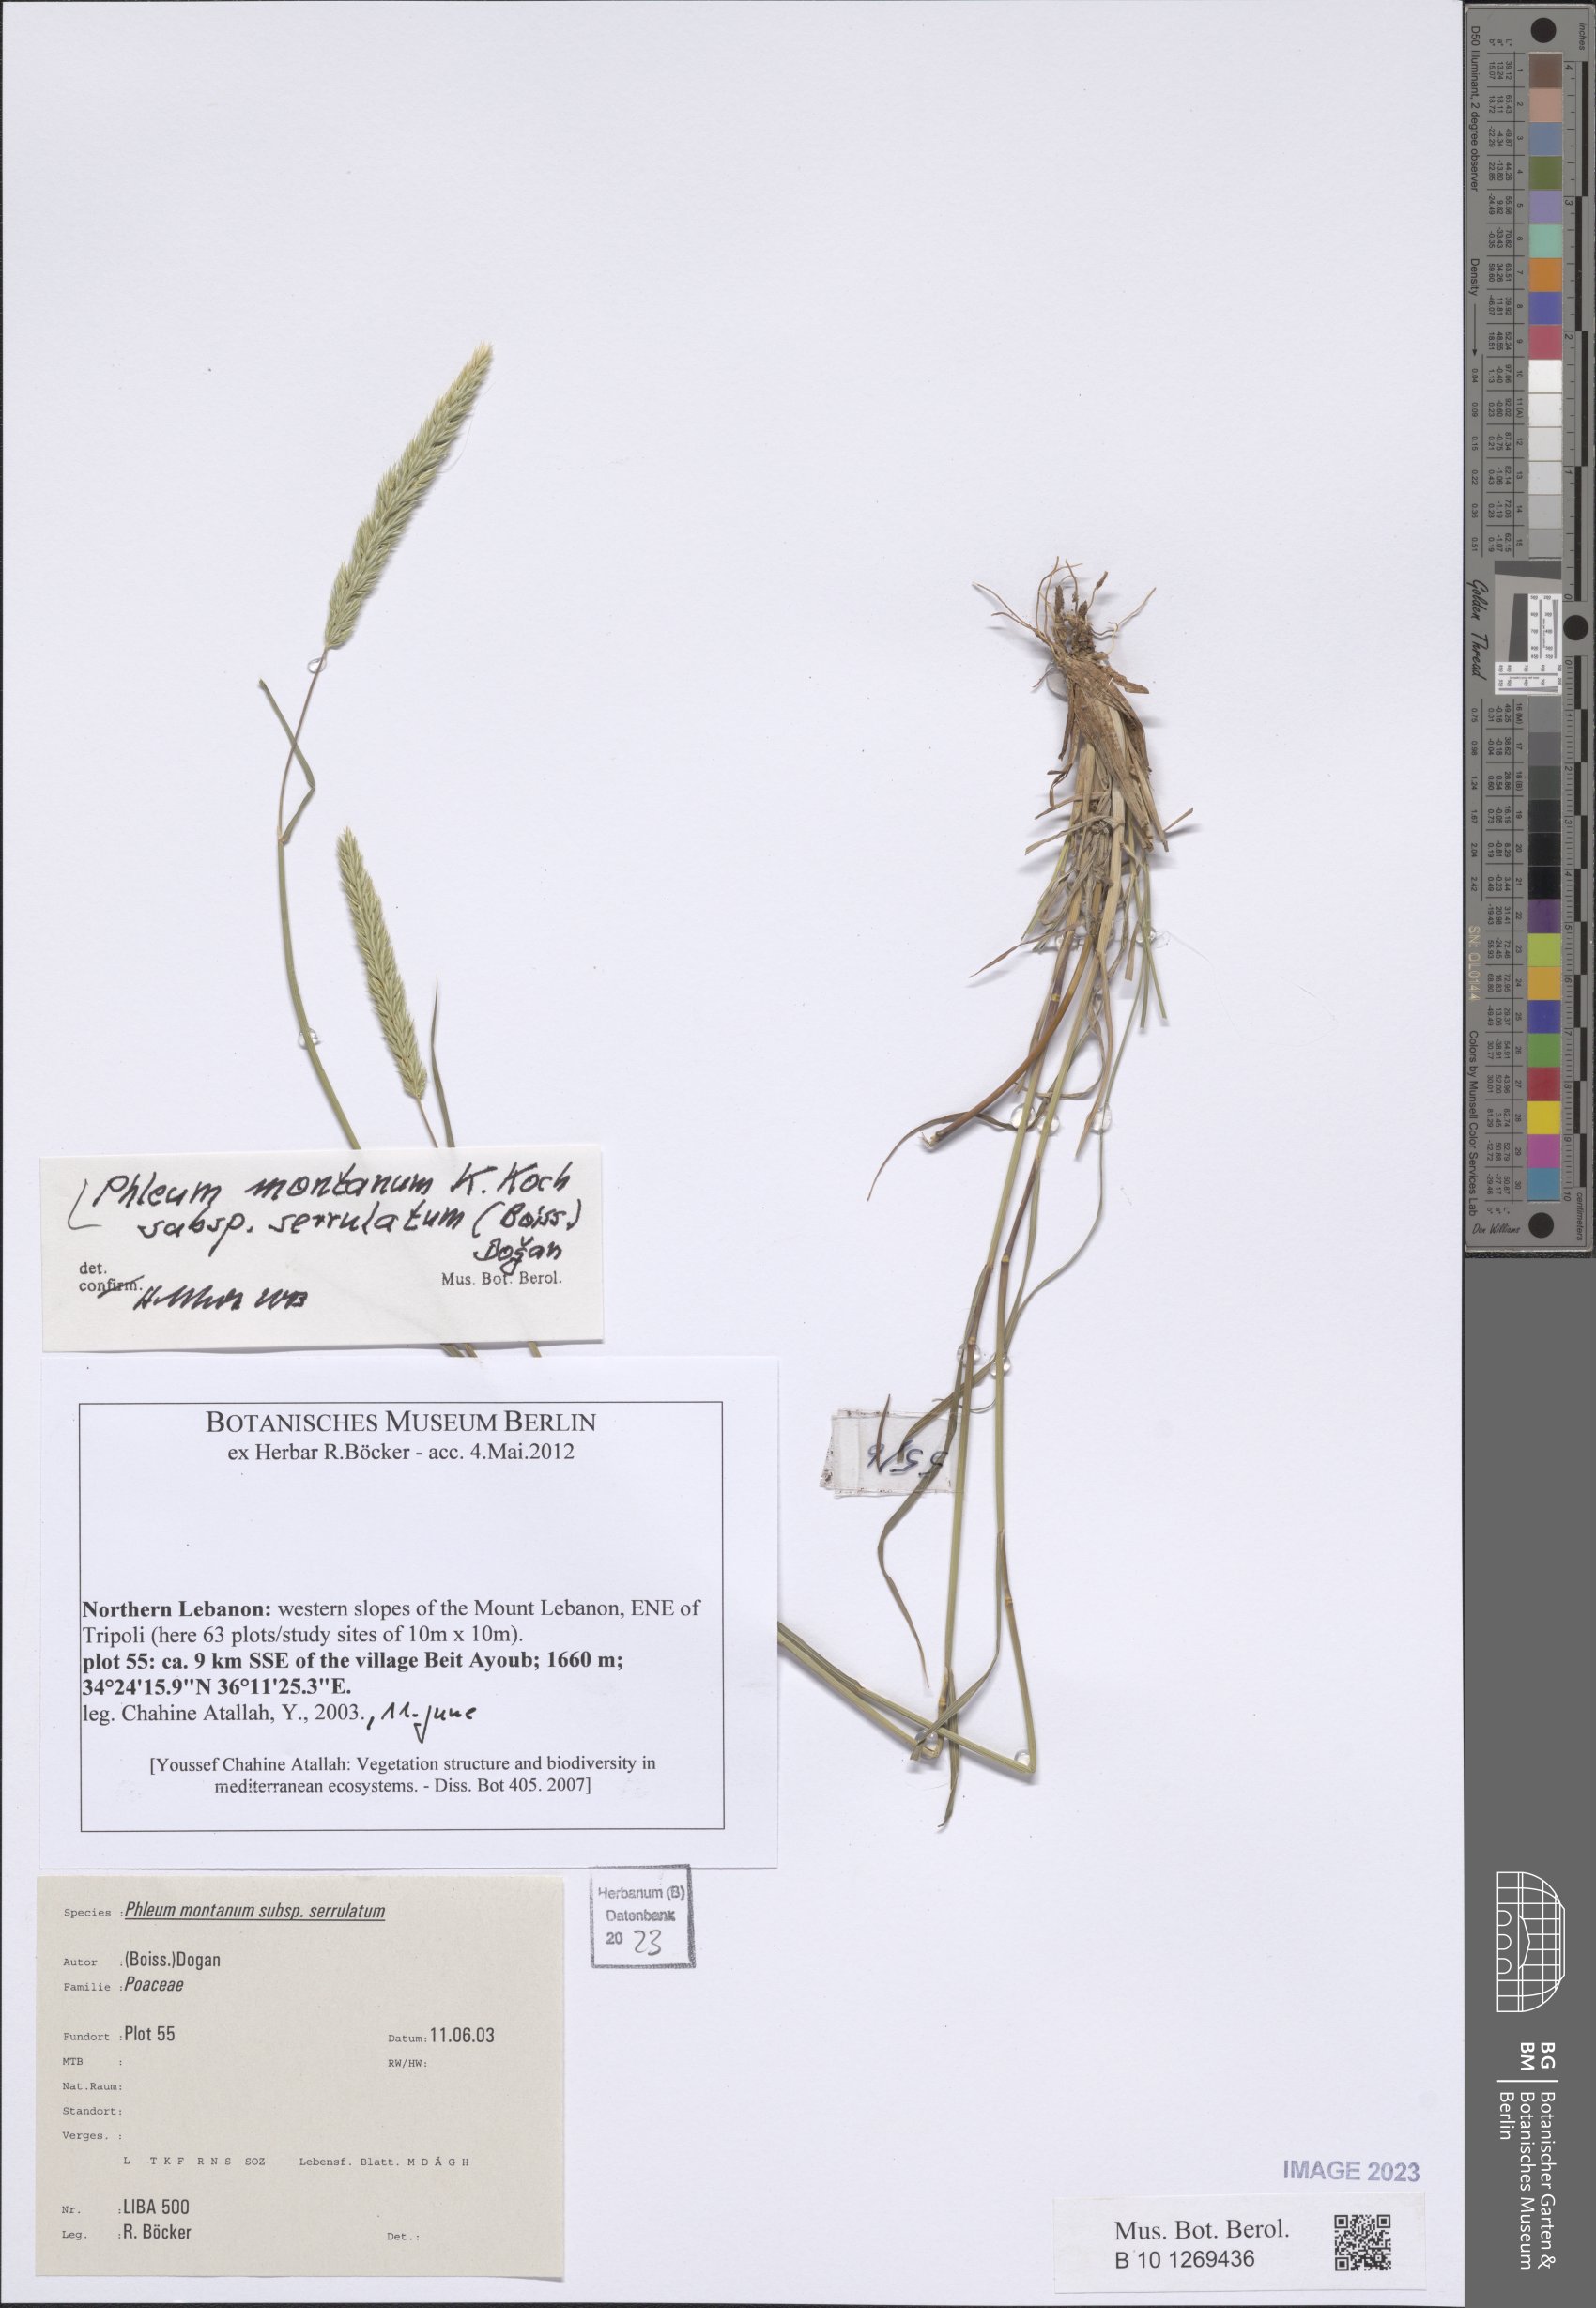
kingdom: Plantae
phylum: Tracheophyta
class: Liliopsida
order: Poales
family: Poaceae
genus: Phleum
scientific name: Phleum montanum
